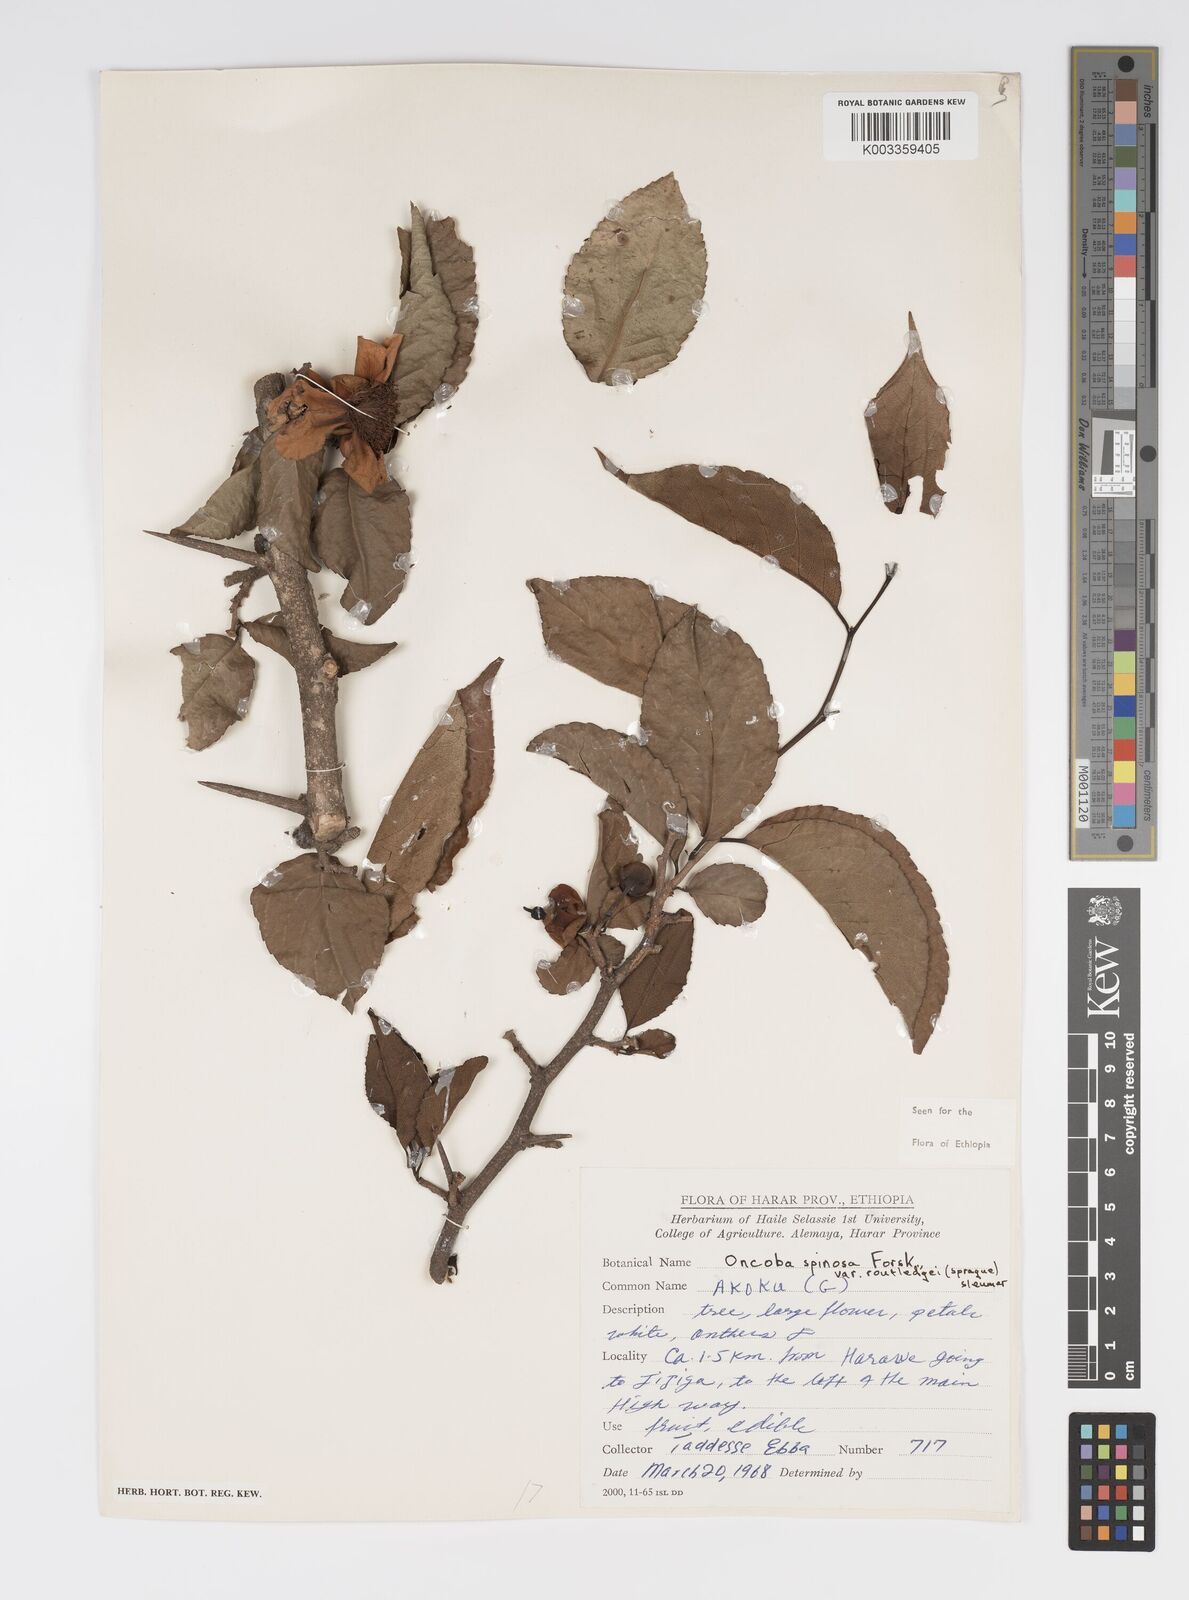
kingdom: Plantae
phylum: Tracheophyta
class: Magnoliopsida
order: Malpighiales
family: Salicaceae
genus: Oncoba
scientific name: Oncoba spinosa
